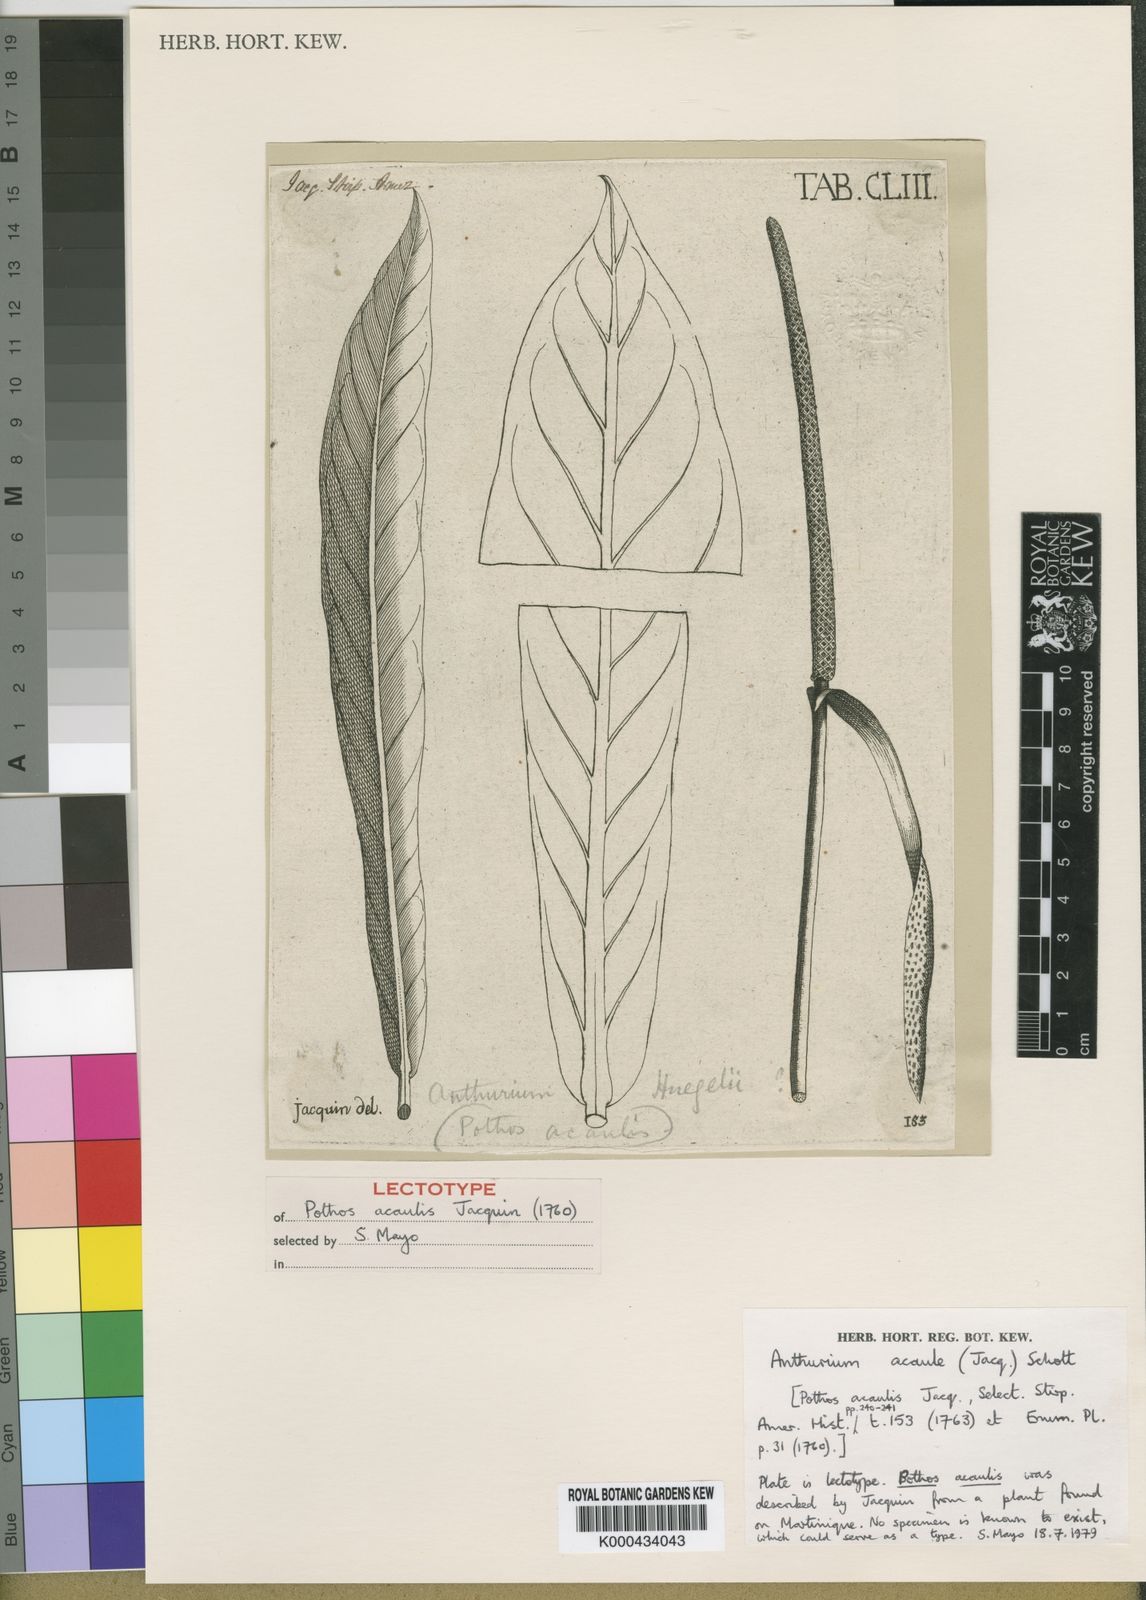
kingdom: Plantae
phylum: Tracheophyta
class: Liliopsida
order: Alismatales
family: Araceae
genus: Anthurium
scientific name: Anthurium acaule
